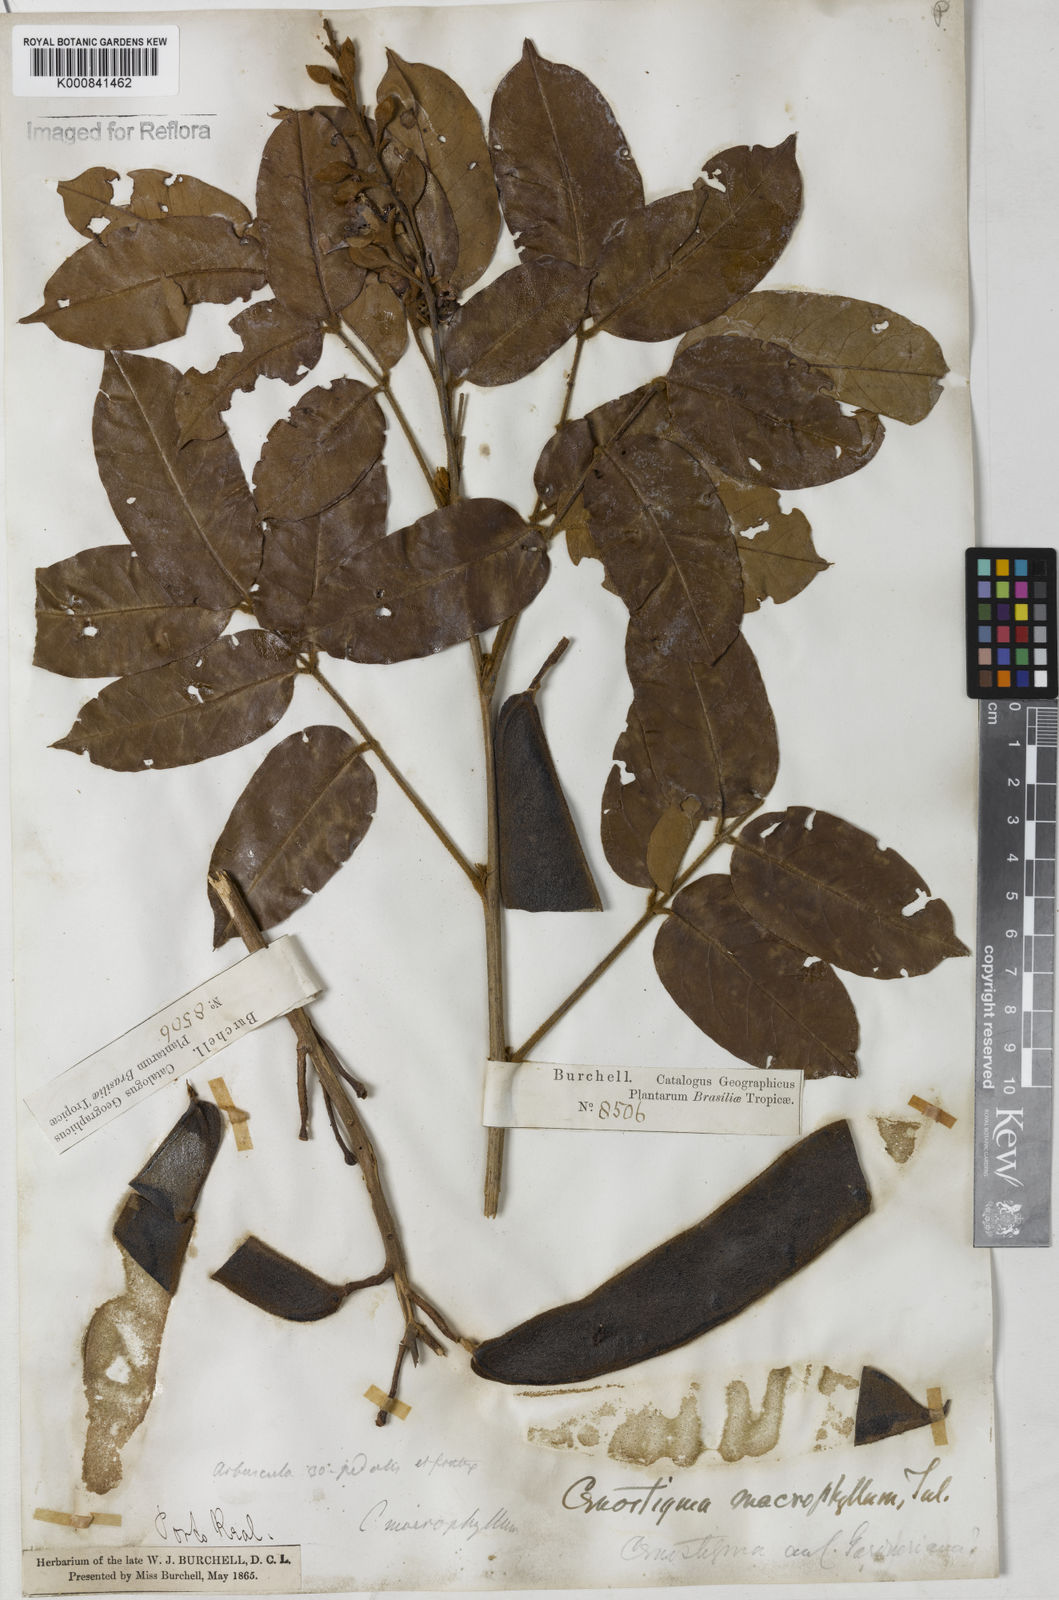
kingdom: Plantae
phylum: Tracheophyta
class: Magnoliopsida
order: Fabales
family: Fabaceae
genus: Cenostigma
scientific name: Cenostigma macrophyllum
